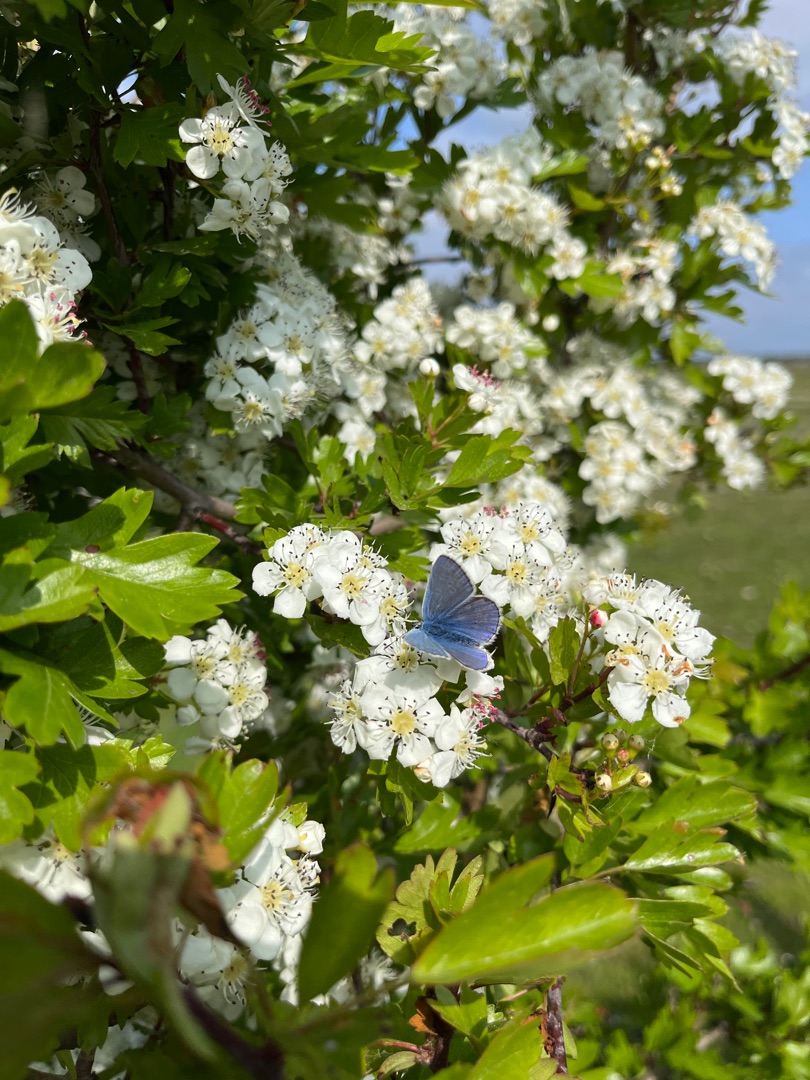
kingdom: Animalia
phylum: Arthropoda
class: Insecta
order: Lepidoptera
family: Lycaenidae
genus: Polyommatus
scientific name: Polyommatus icarus
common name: Almindelig blåfugl
